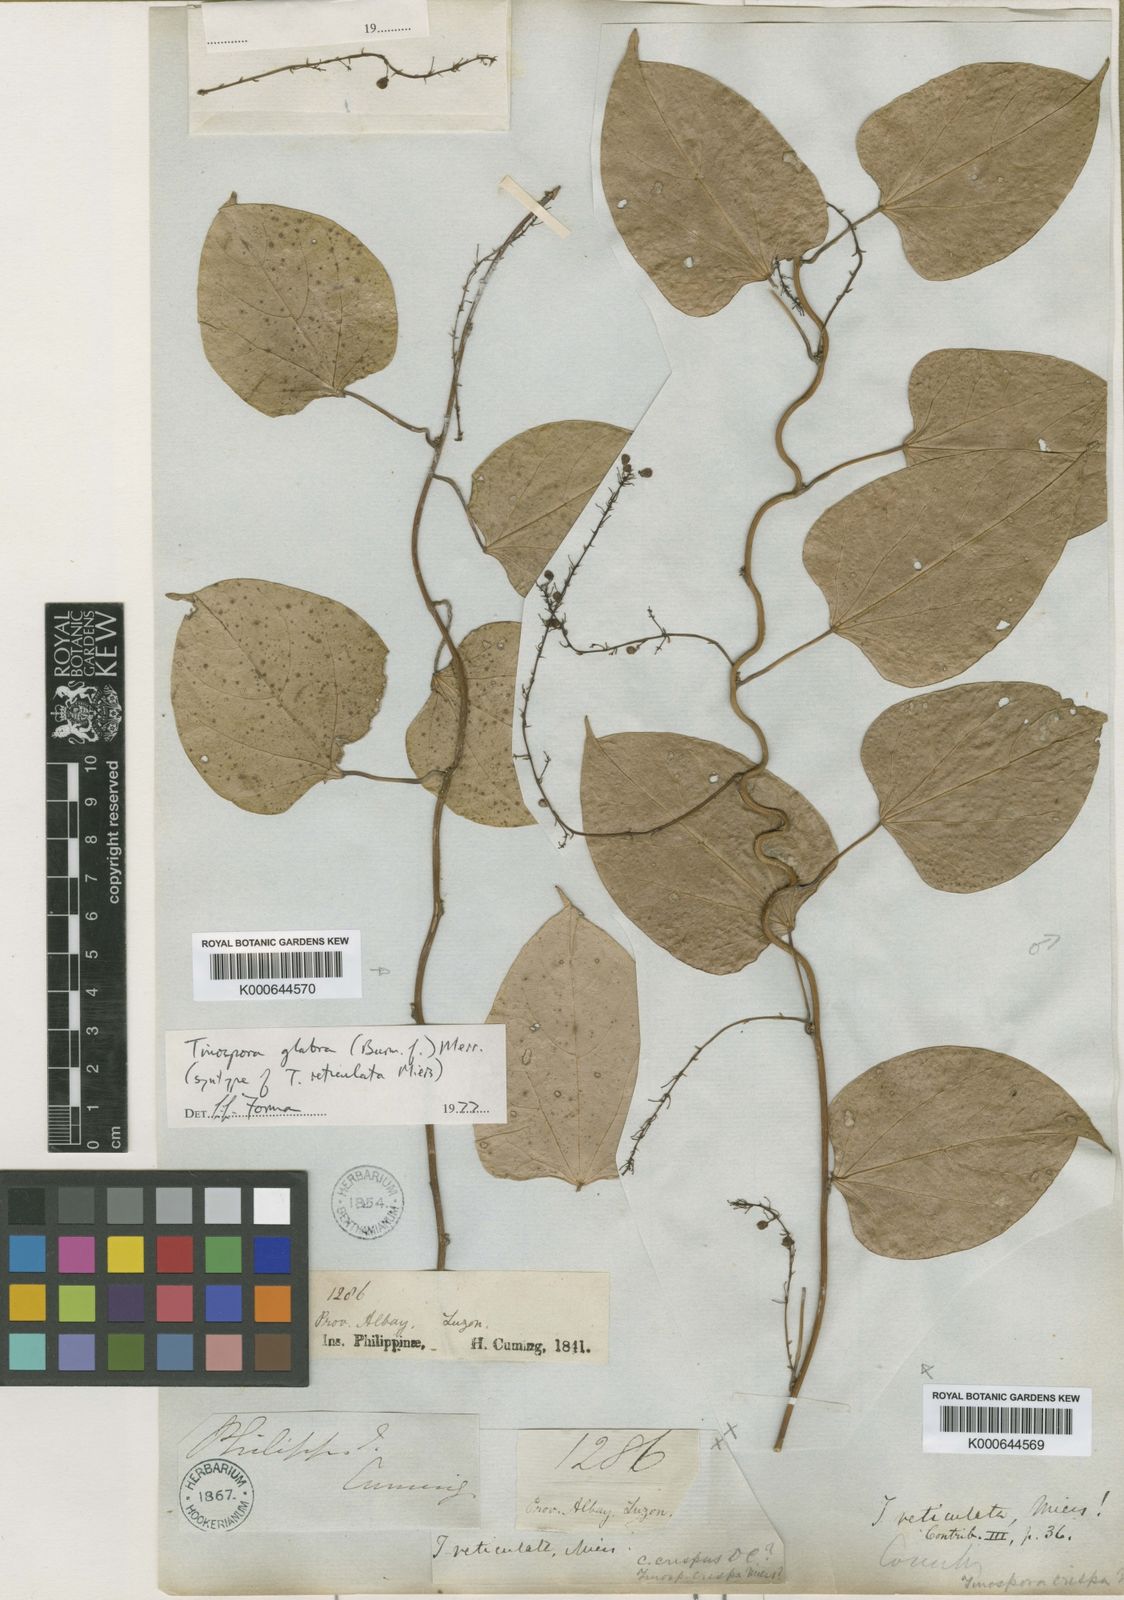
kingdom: Plantae
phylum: Tracheophyta
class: Magnoliopsida
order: Ranunculales
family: Menispermaceae
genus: Tinospora
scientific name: Tinospora glabra
